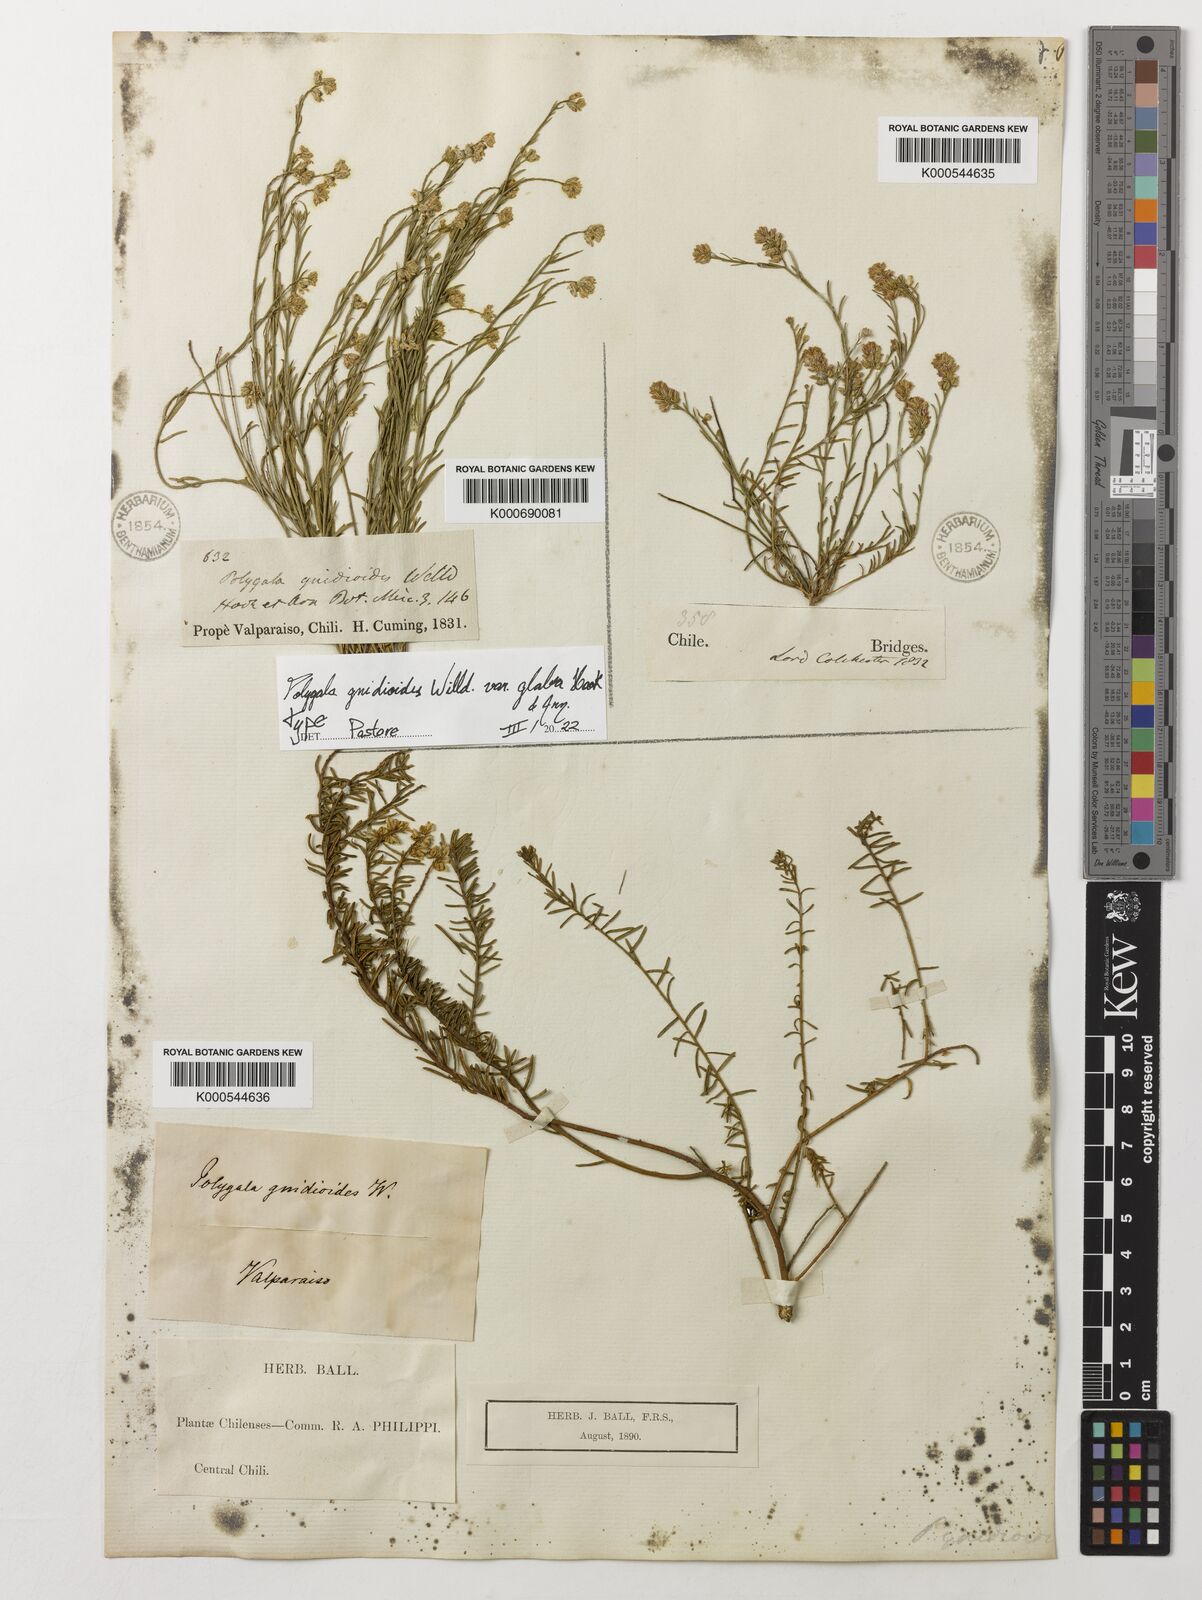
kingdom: Plantae
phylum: Tracheophyta
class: Magnoliopsida
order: Fabales
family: Polygalaceae
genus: Polygala
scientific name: Polygala gnidioides
